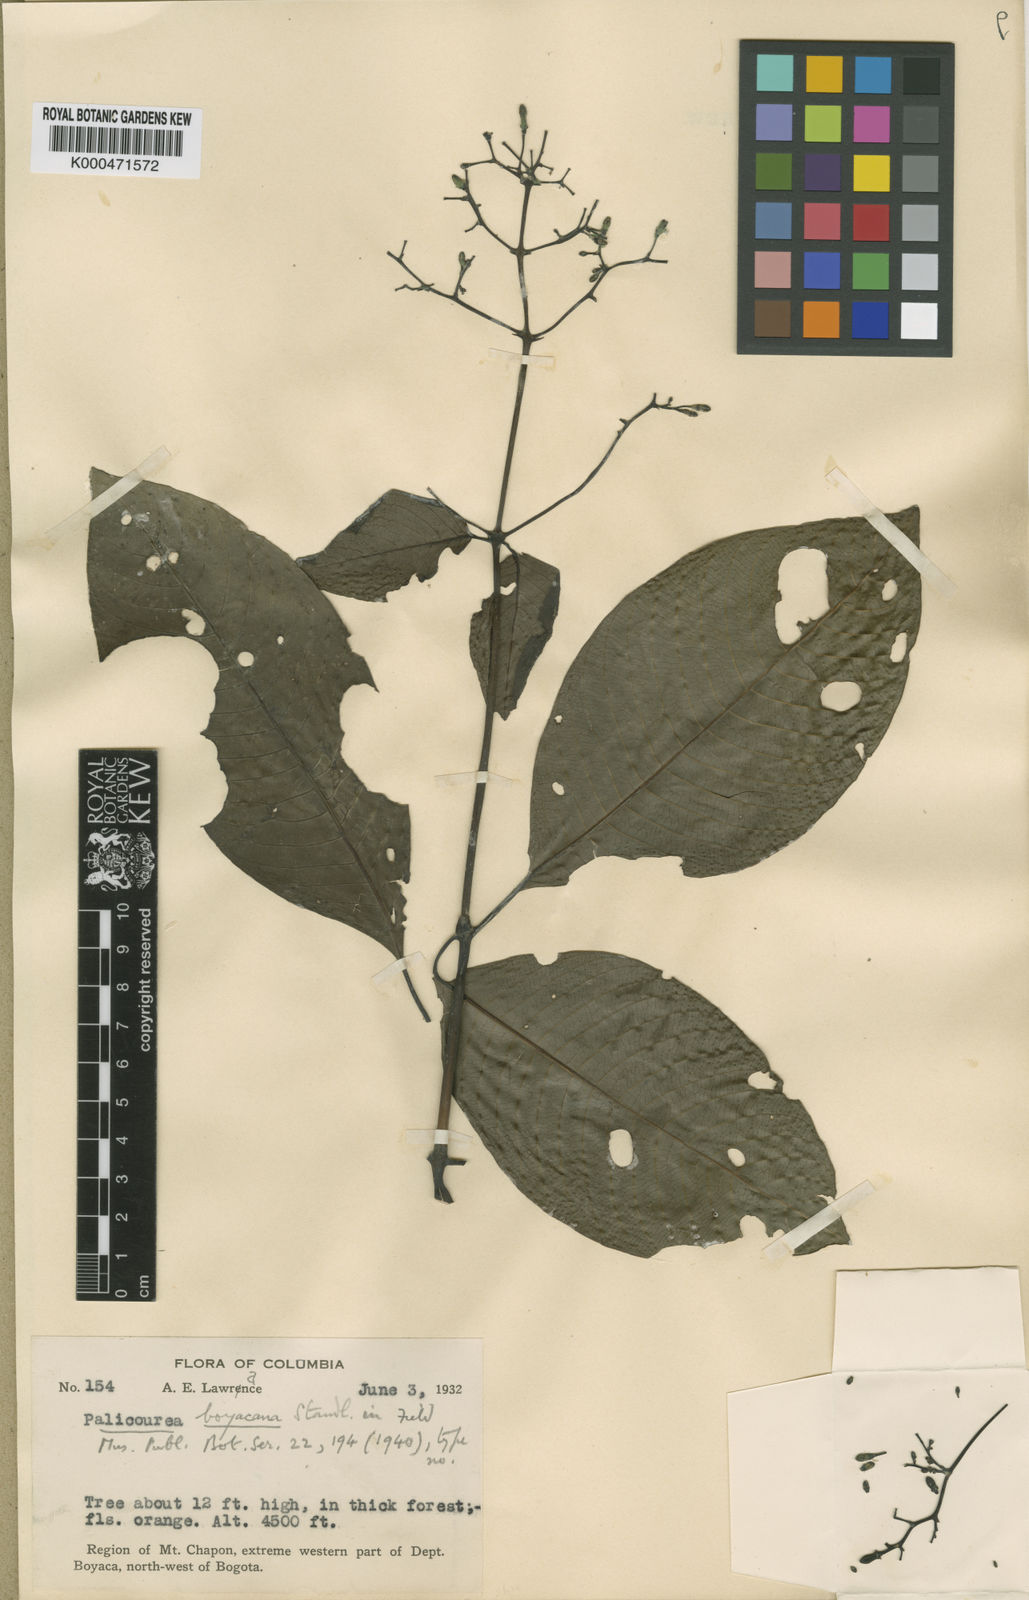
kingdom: Plantae
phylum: Tracheophyta
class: Magnoliopsida
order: Gentianales
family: Rubiaceae
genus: Palicourea
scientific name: Palicourea boyacana
